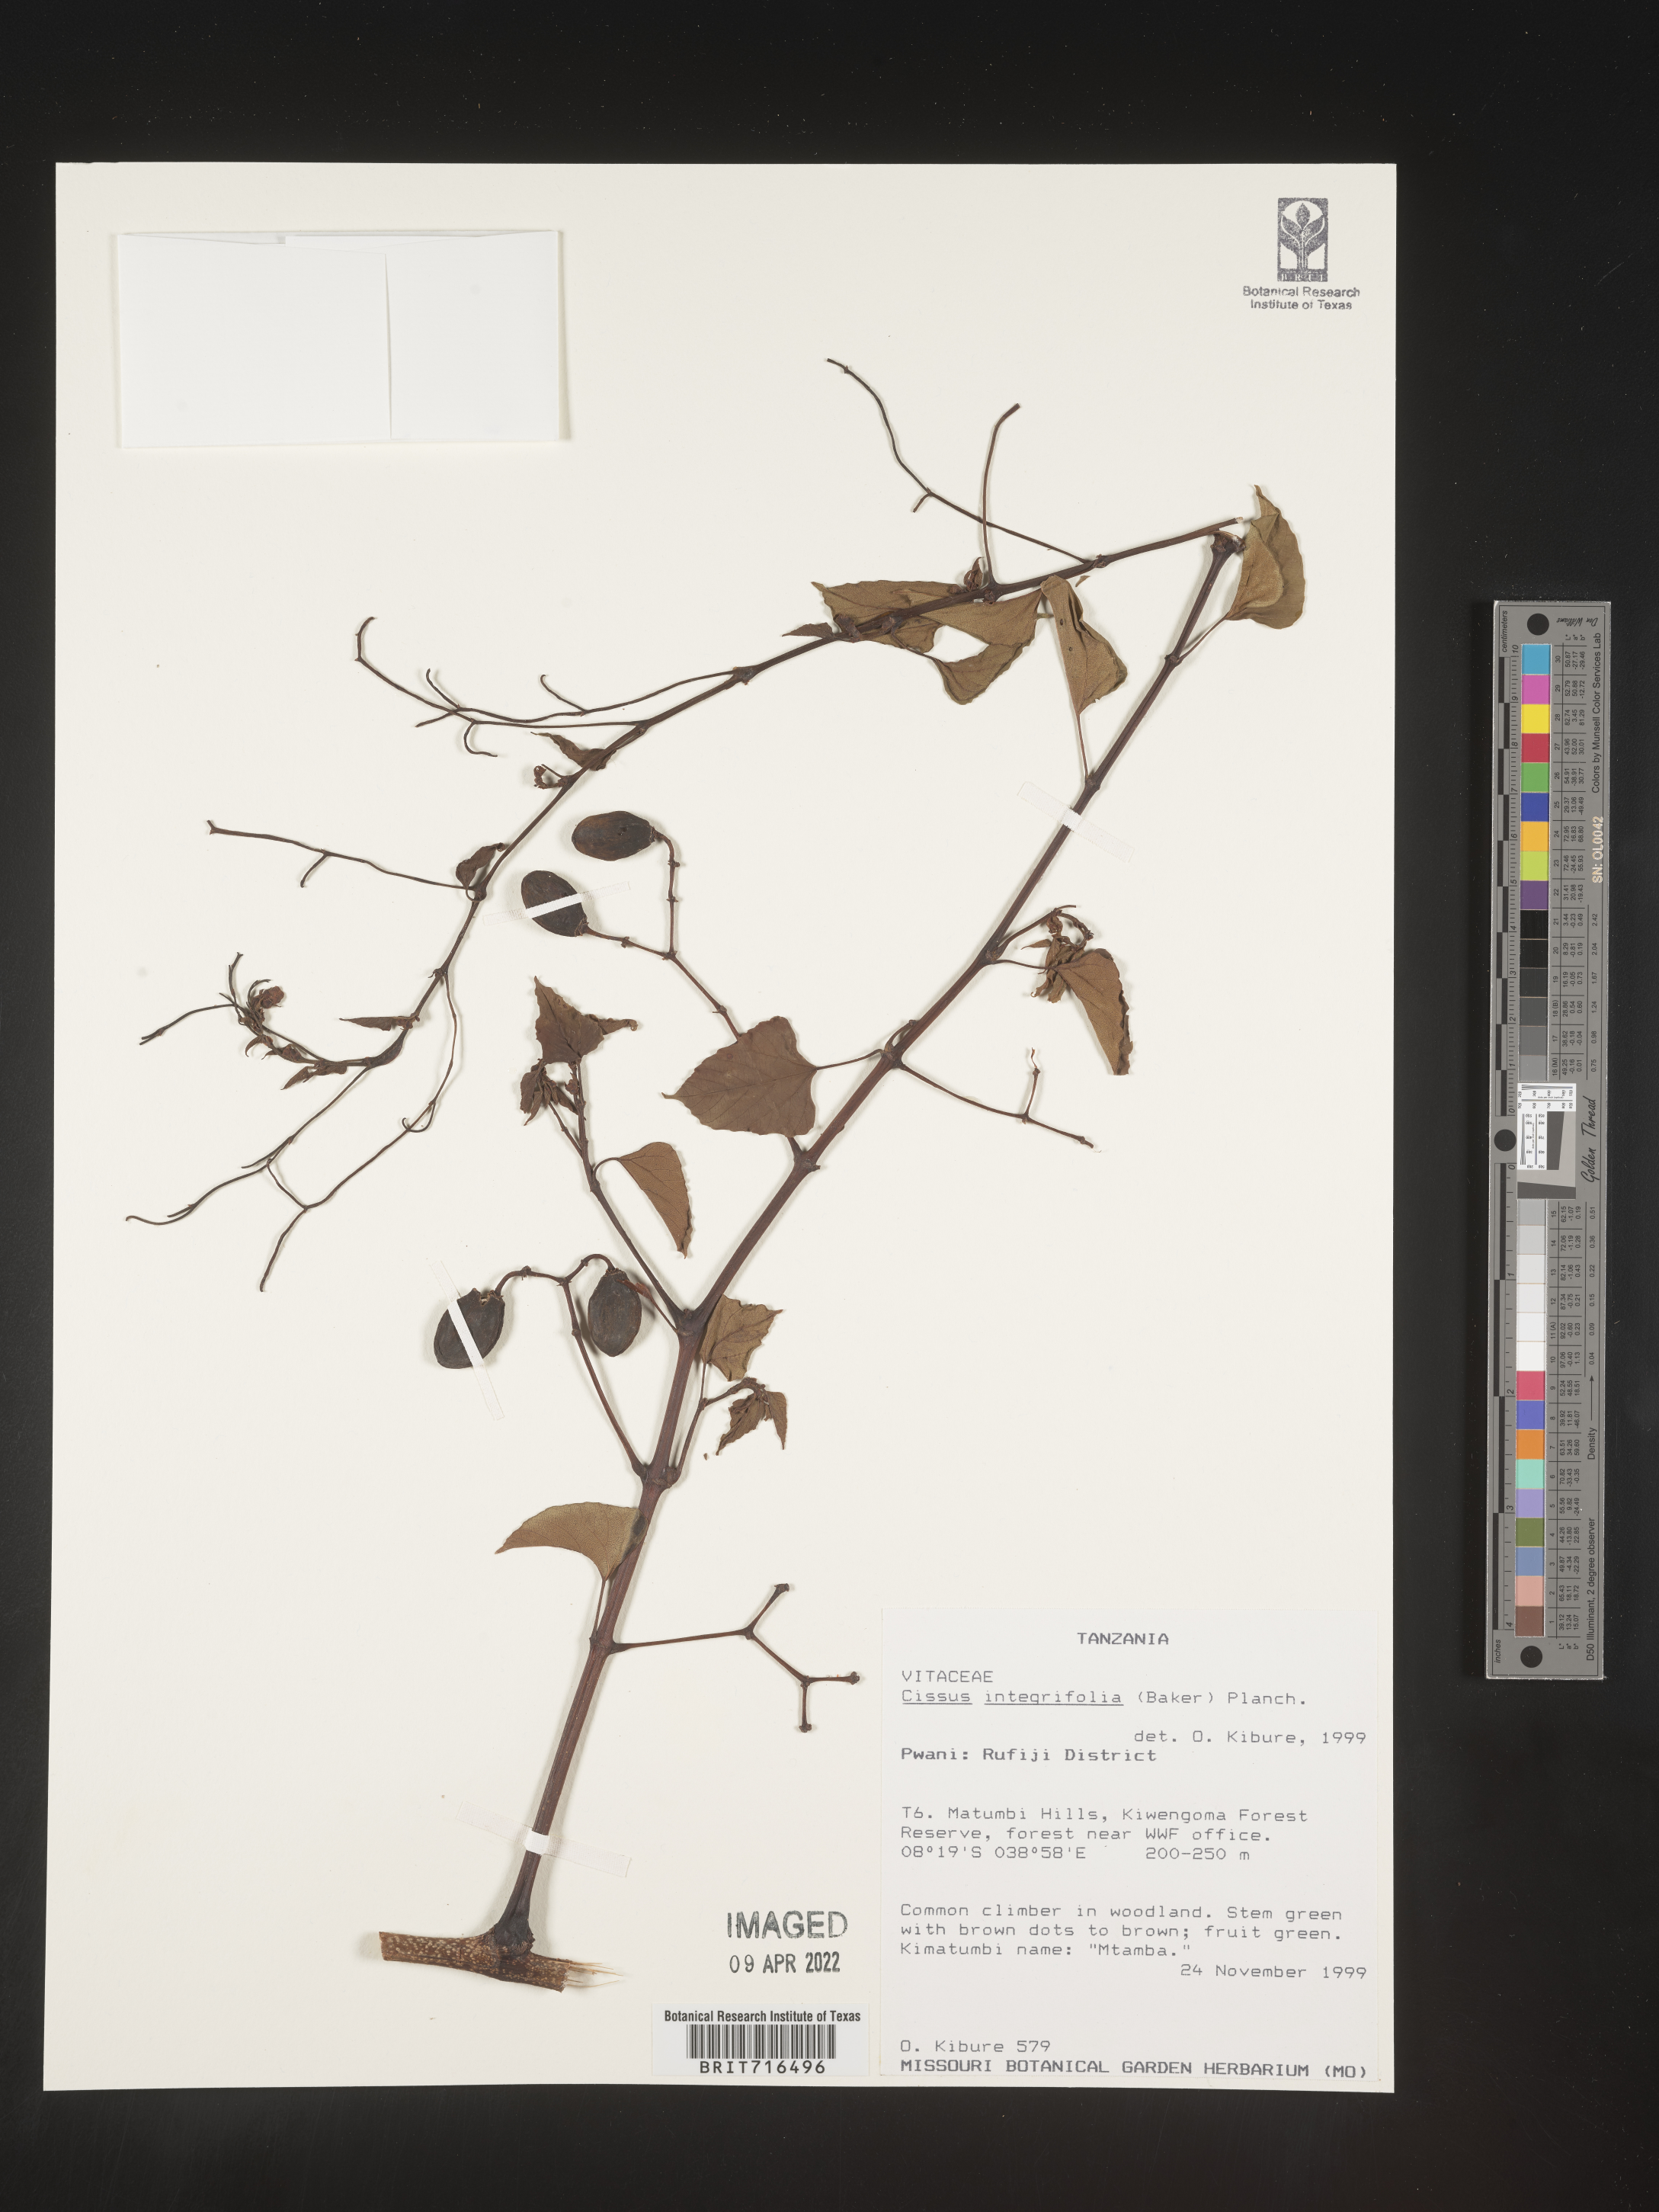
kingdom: Plantae
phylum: Tracheophyta
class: Magnoliopsida
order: Vitales
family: Vitaceae
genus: Cissus
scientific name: Cissus
